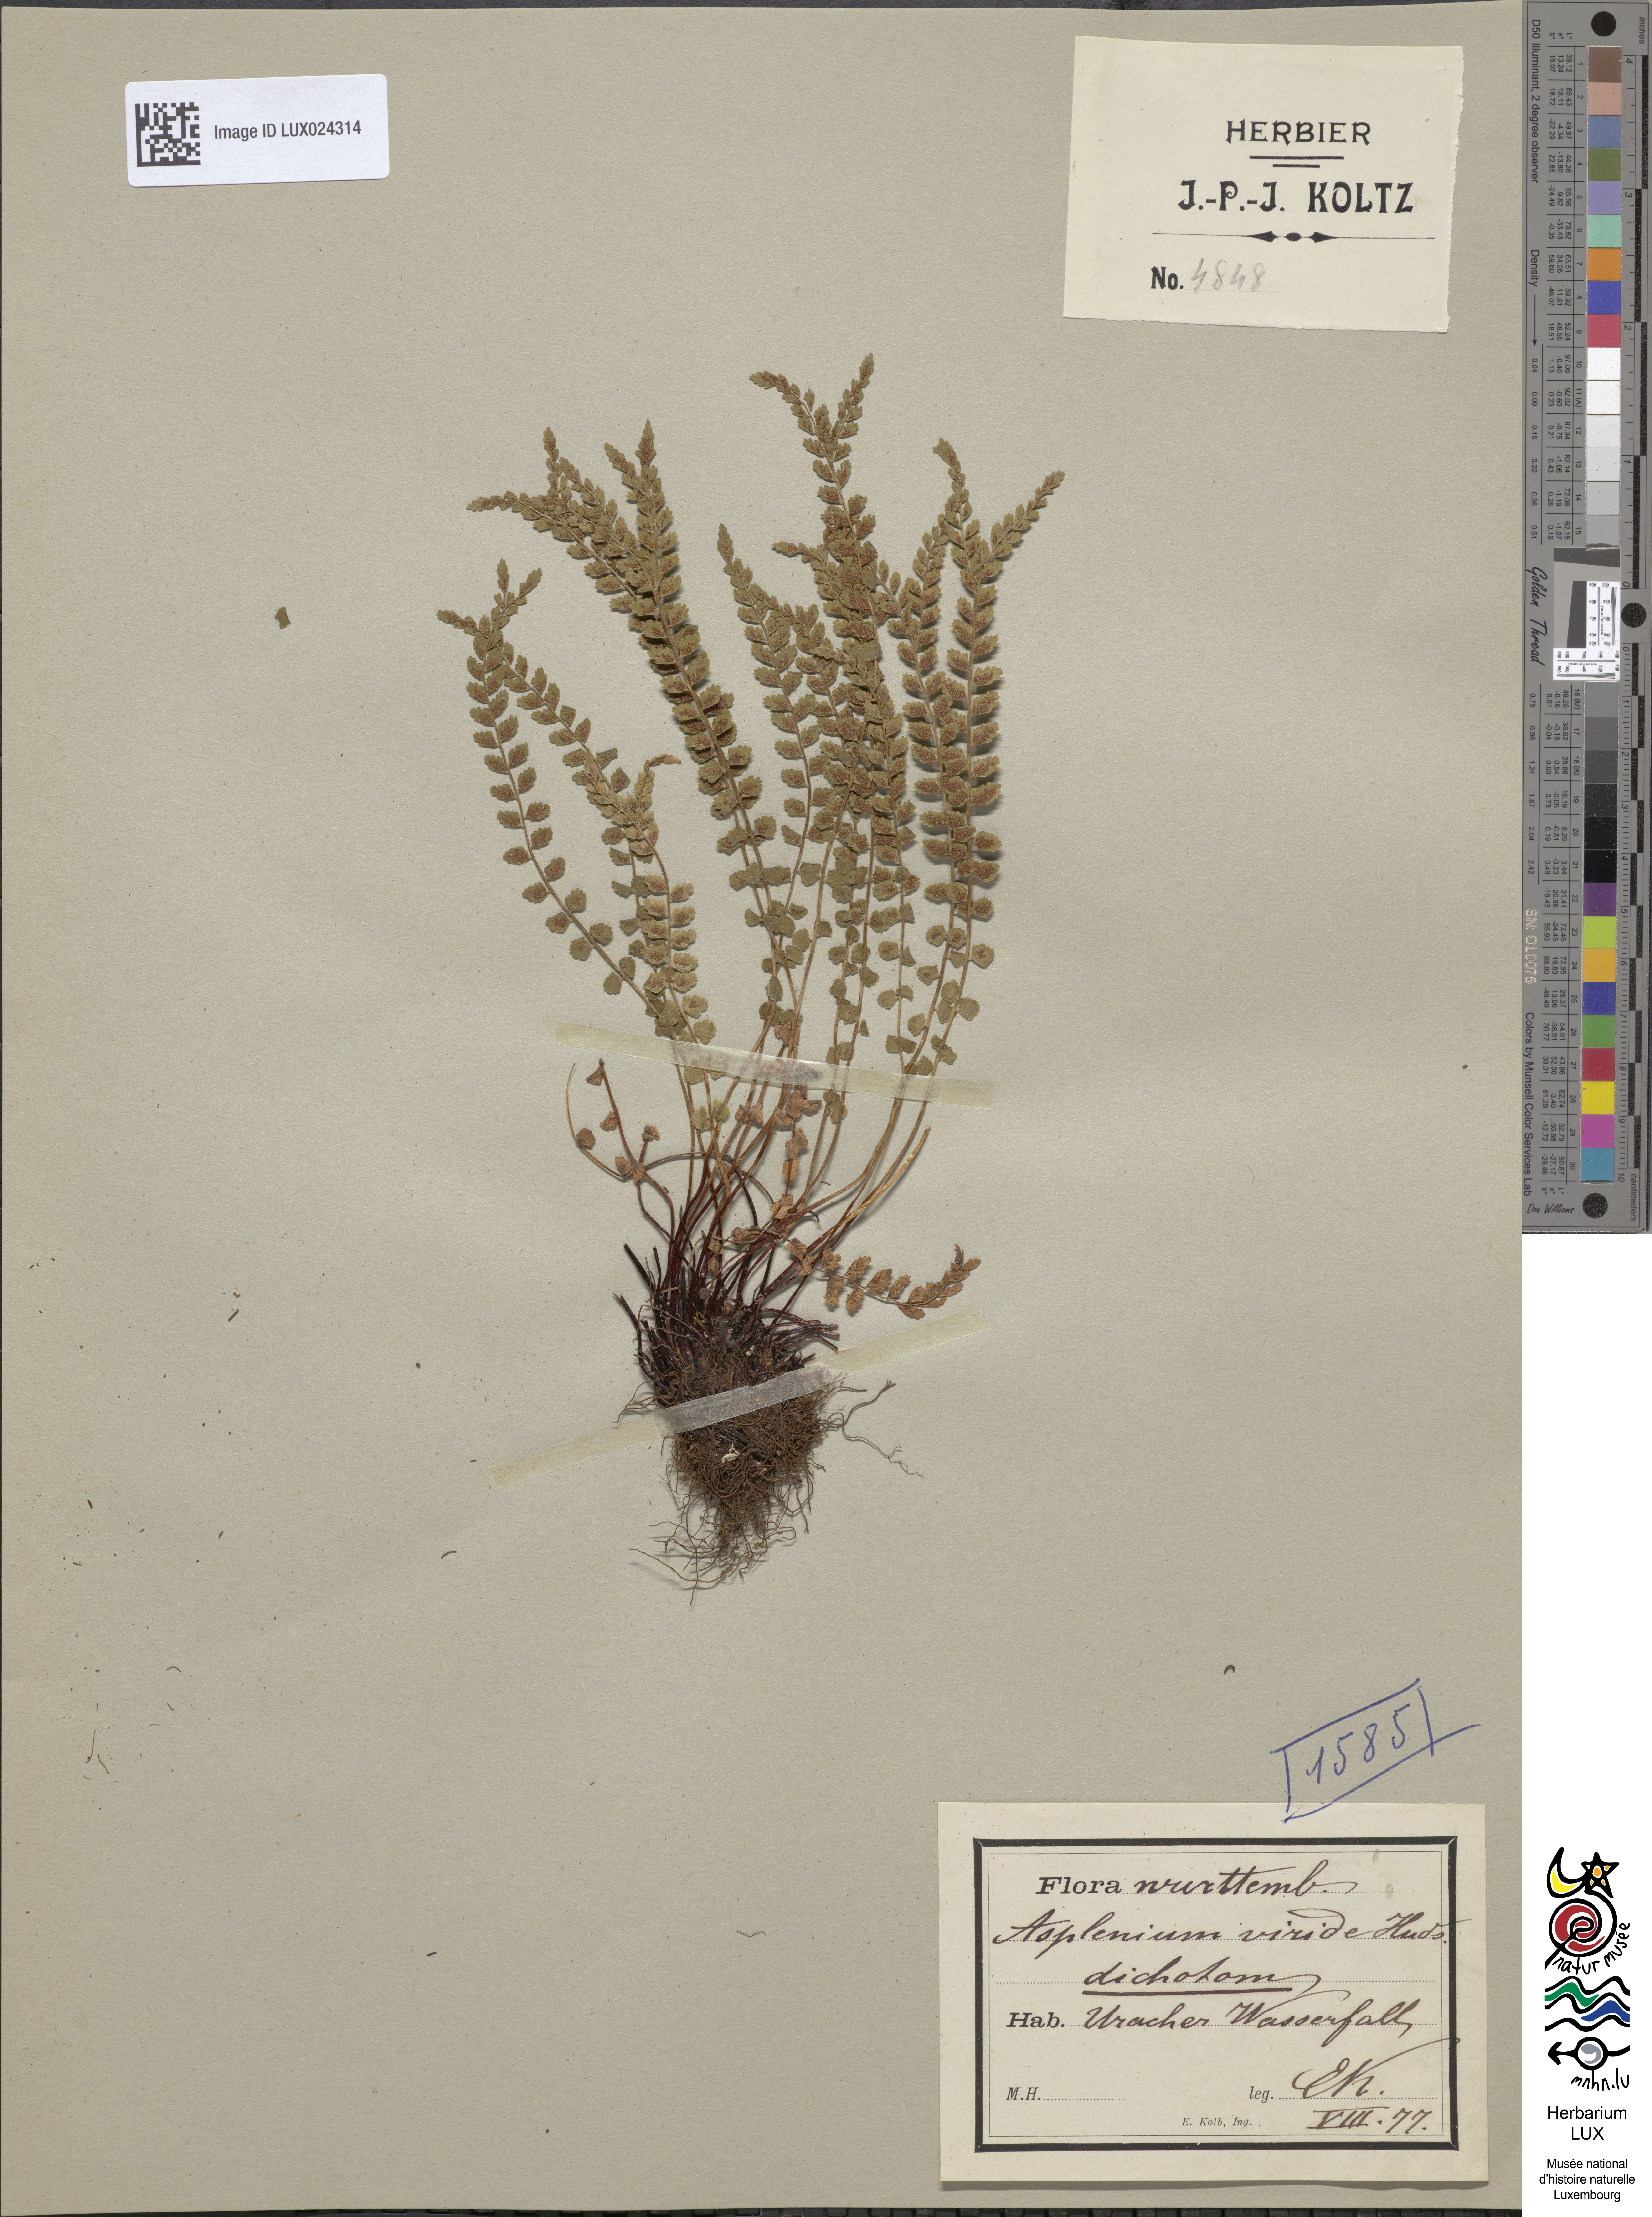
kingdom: Plantae
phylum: Tracheophyta
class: Polypodiopsida
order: Polypodiales
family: Aspleniaceae
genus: Asplenium
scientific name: Asplenium viride
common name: Green spleenwort
